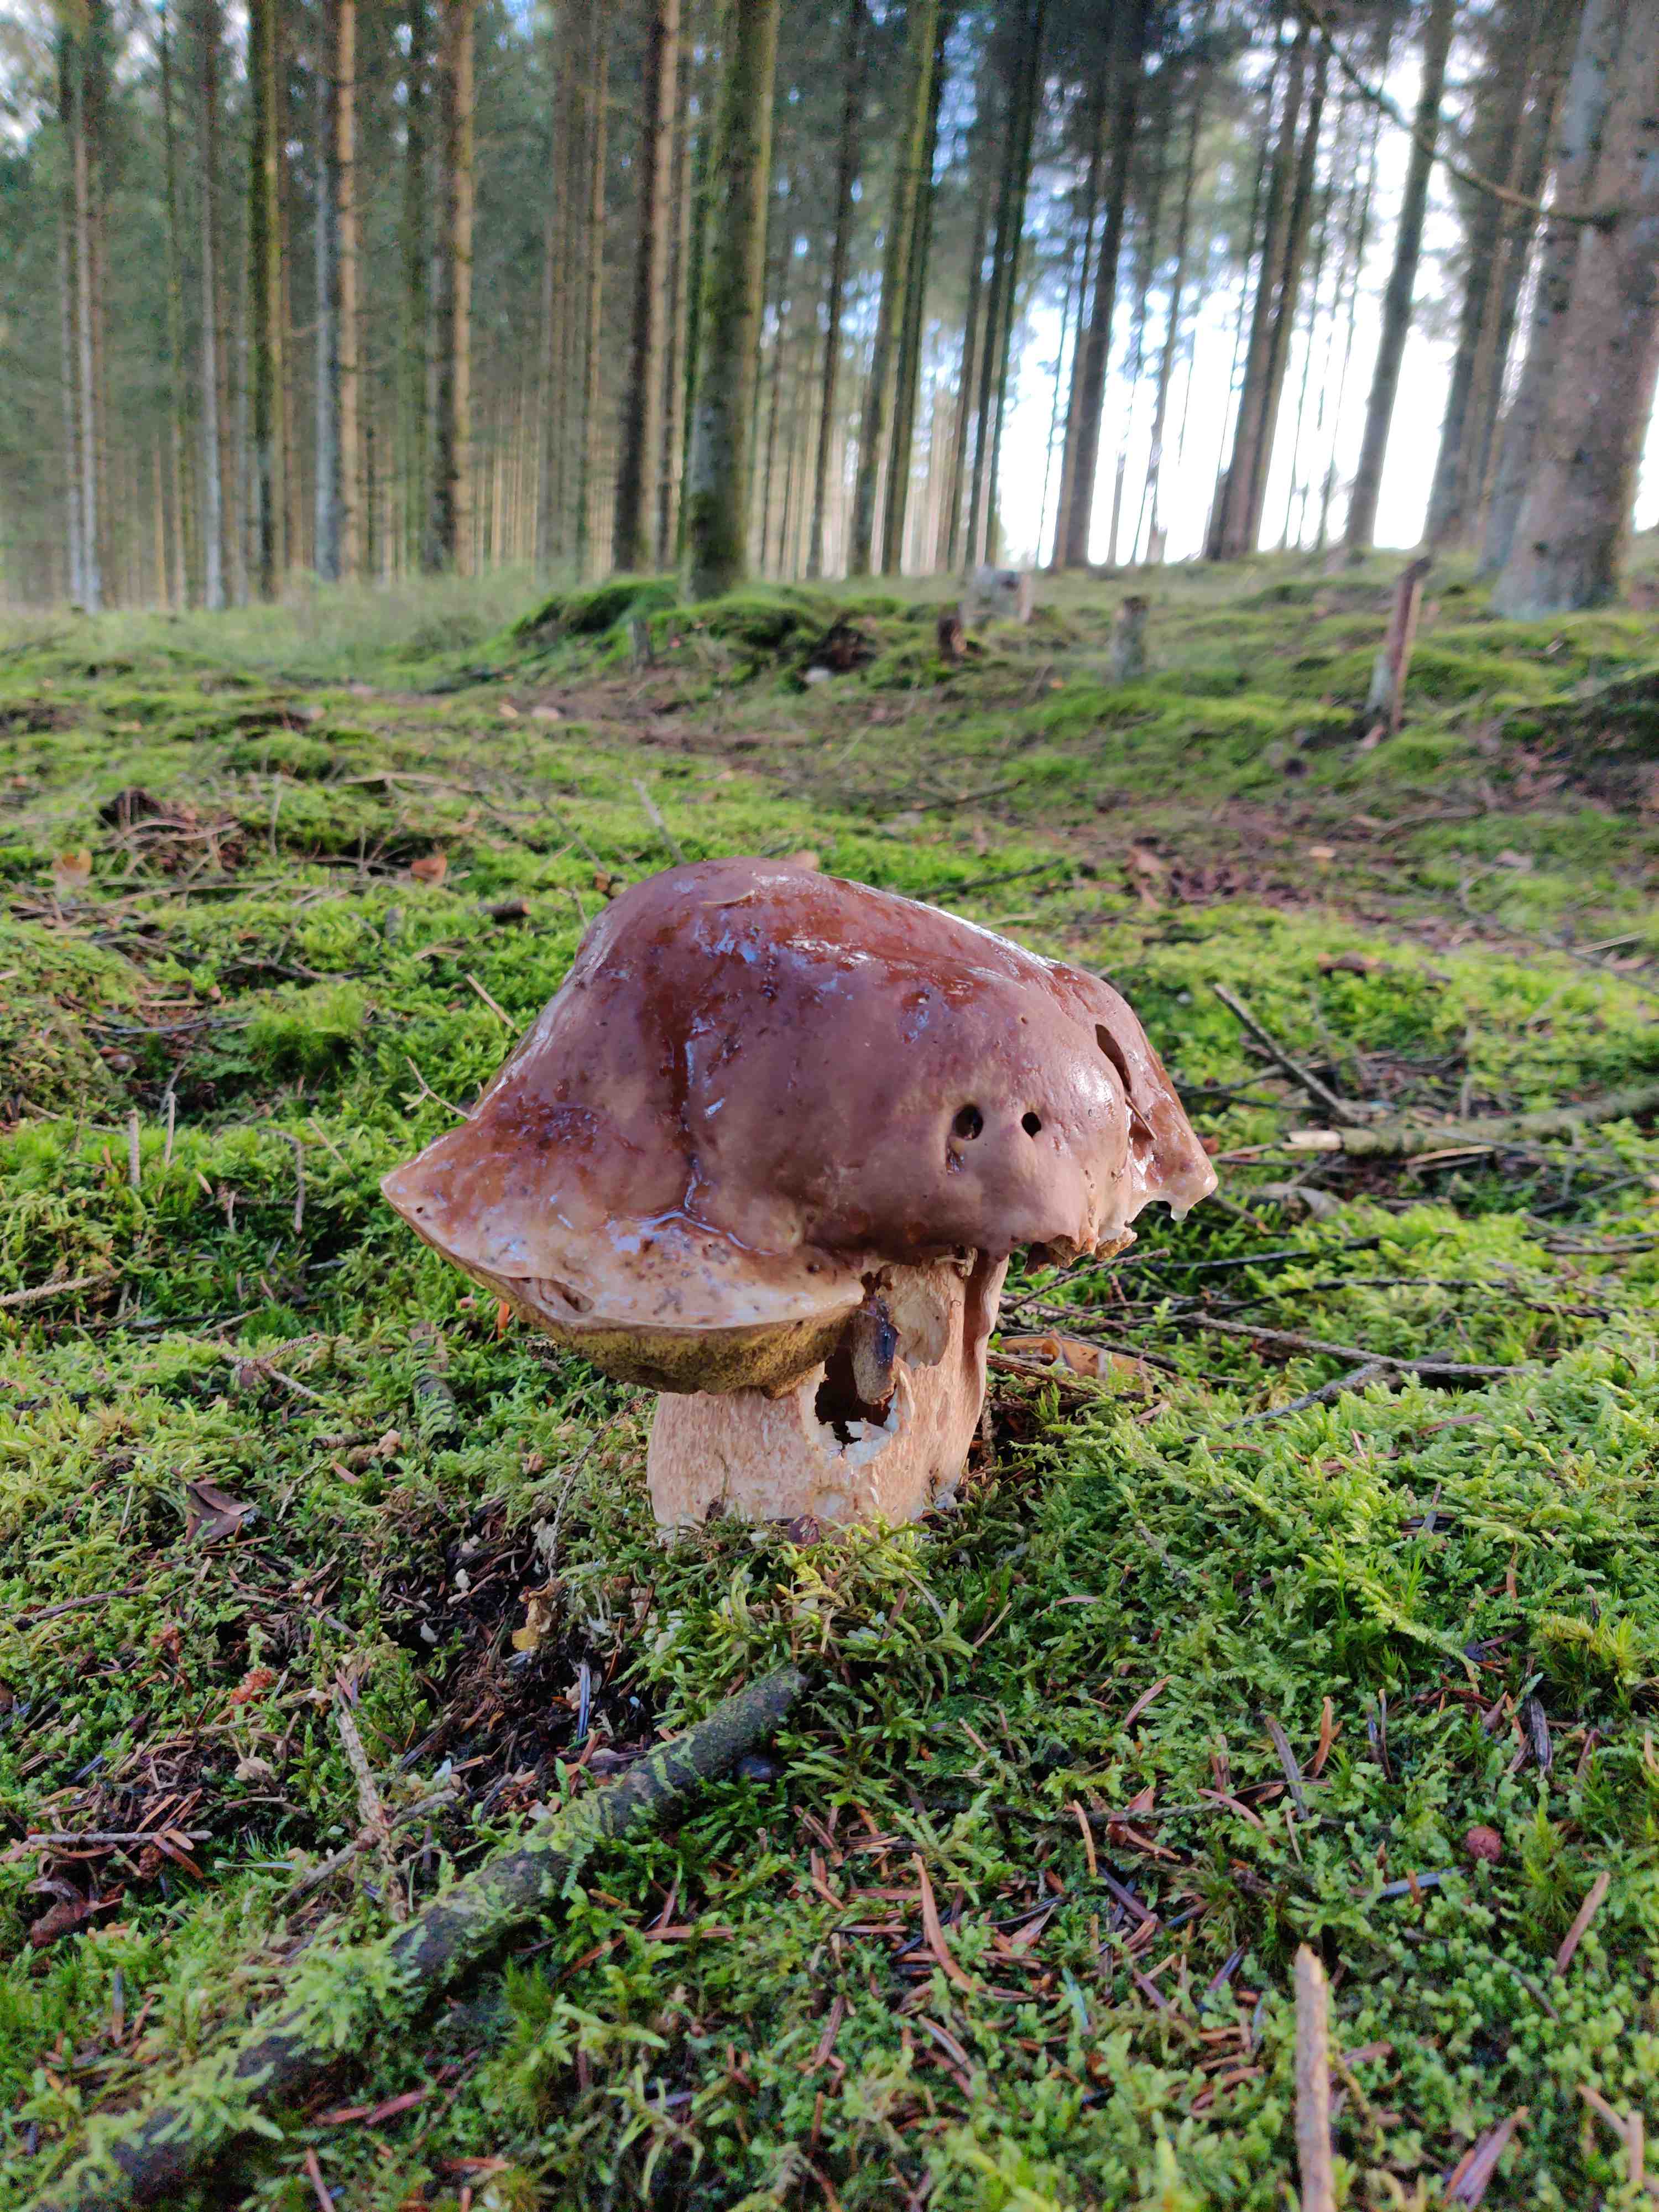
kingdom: Fungi
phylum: Basidiomycota
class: Agaricomycetes
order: Boletales
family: Boletaceae
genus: Boletus
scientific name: Boletus
